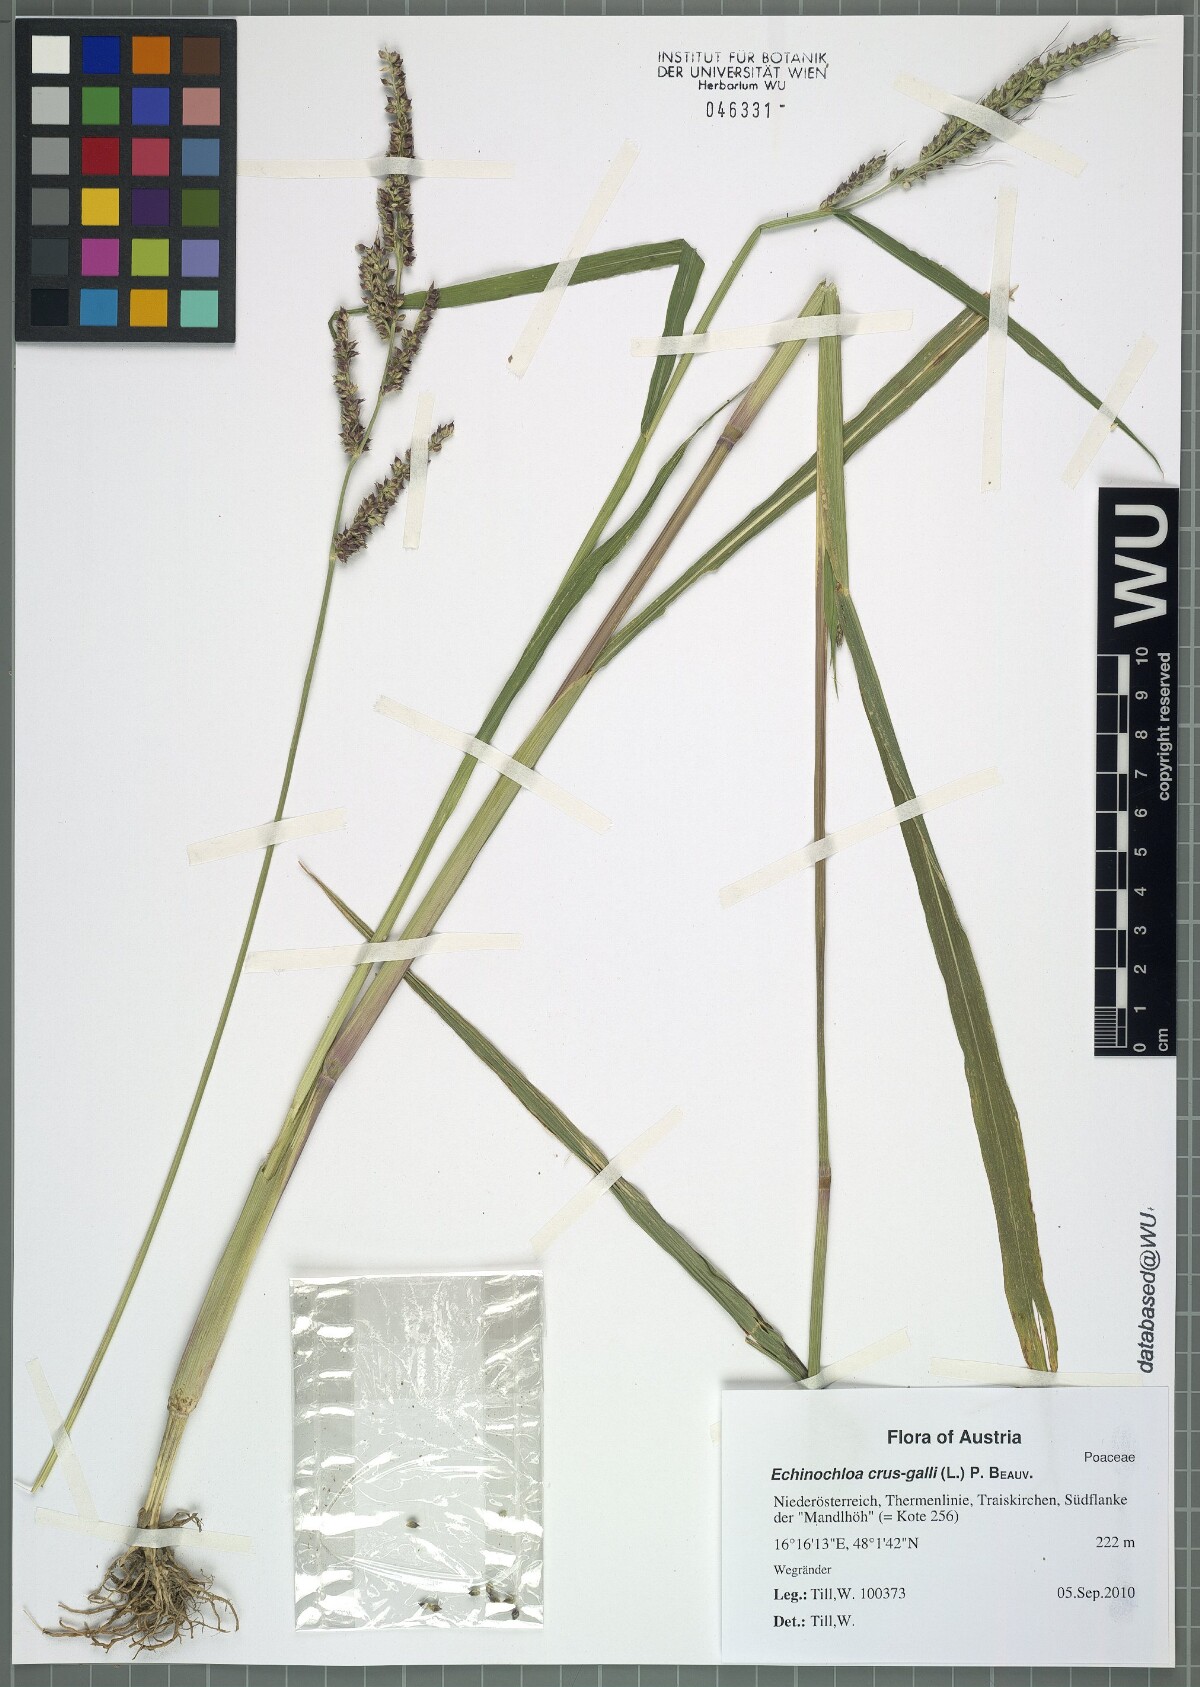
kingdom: Plantae
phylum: Tracheophyta
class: Liliopsida
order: Poales
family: Poaceae
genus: Echinochloa
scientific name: Echinochloa crus-galli
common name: Cockspur
